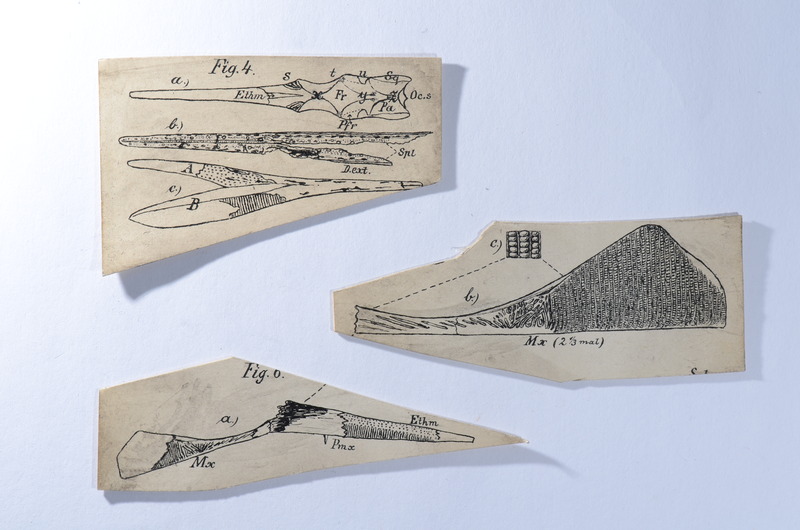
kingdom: Animalia
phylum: Chordata
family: Saurichthyidae
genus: Saurichthys
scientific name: Saurichthys
